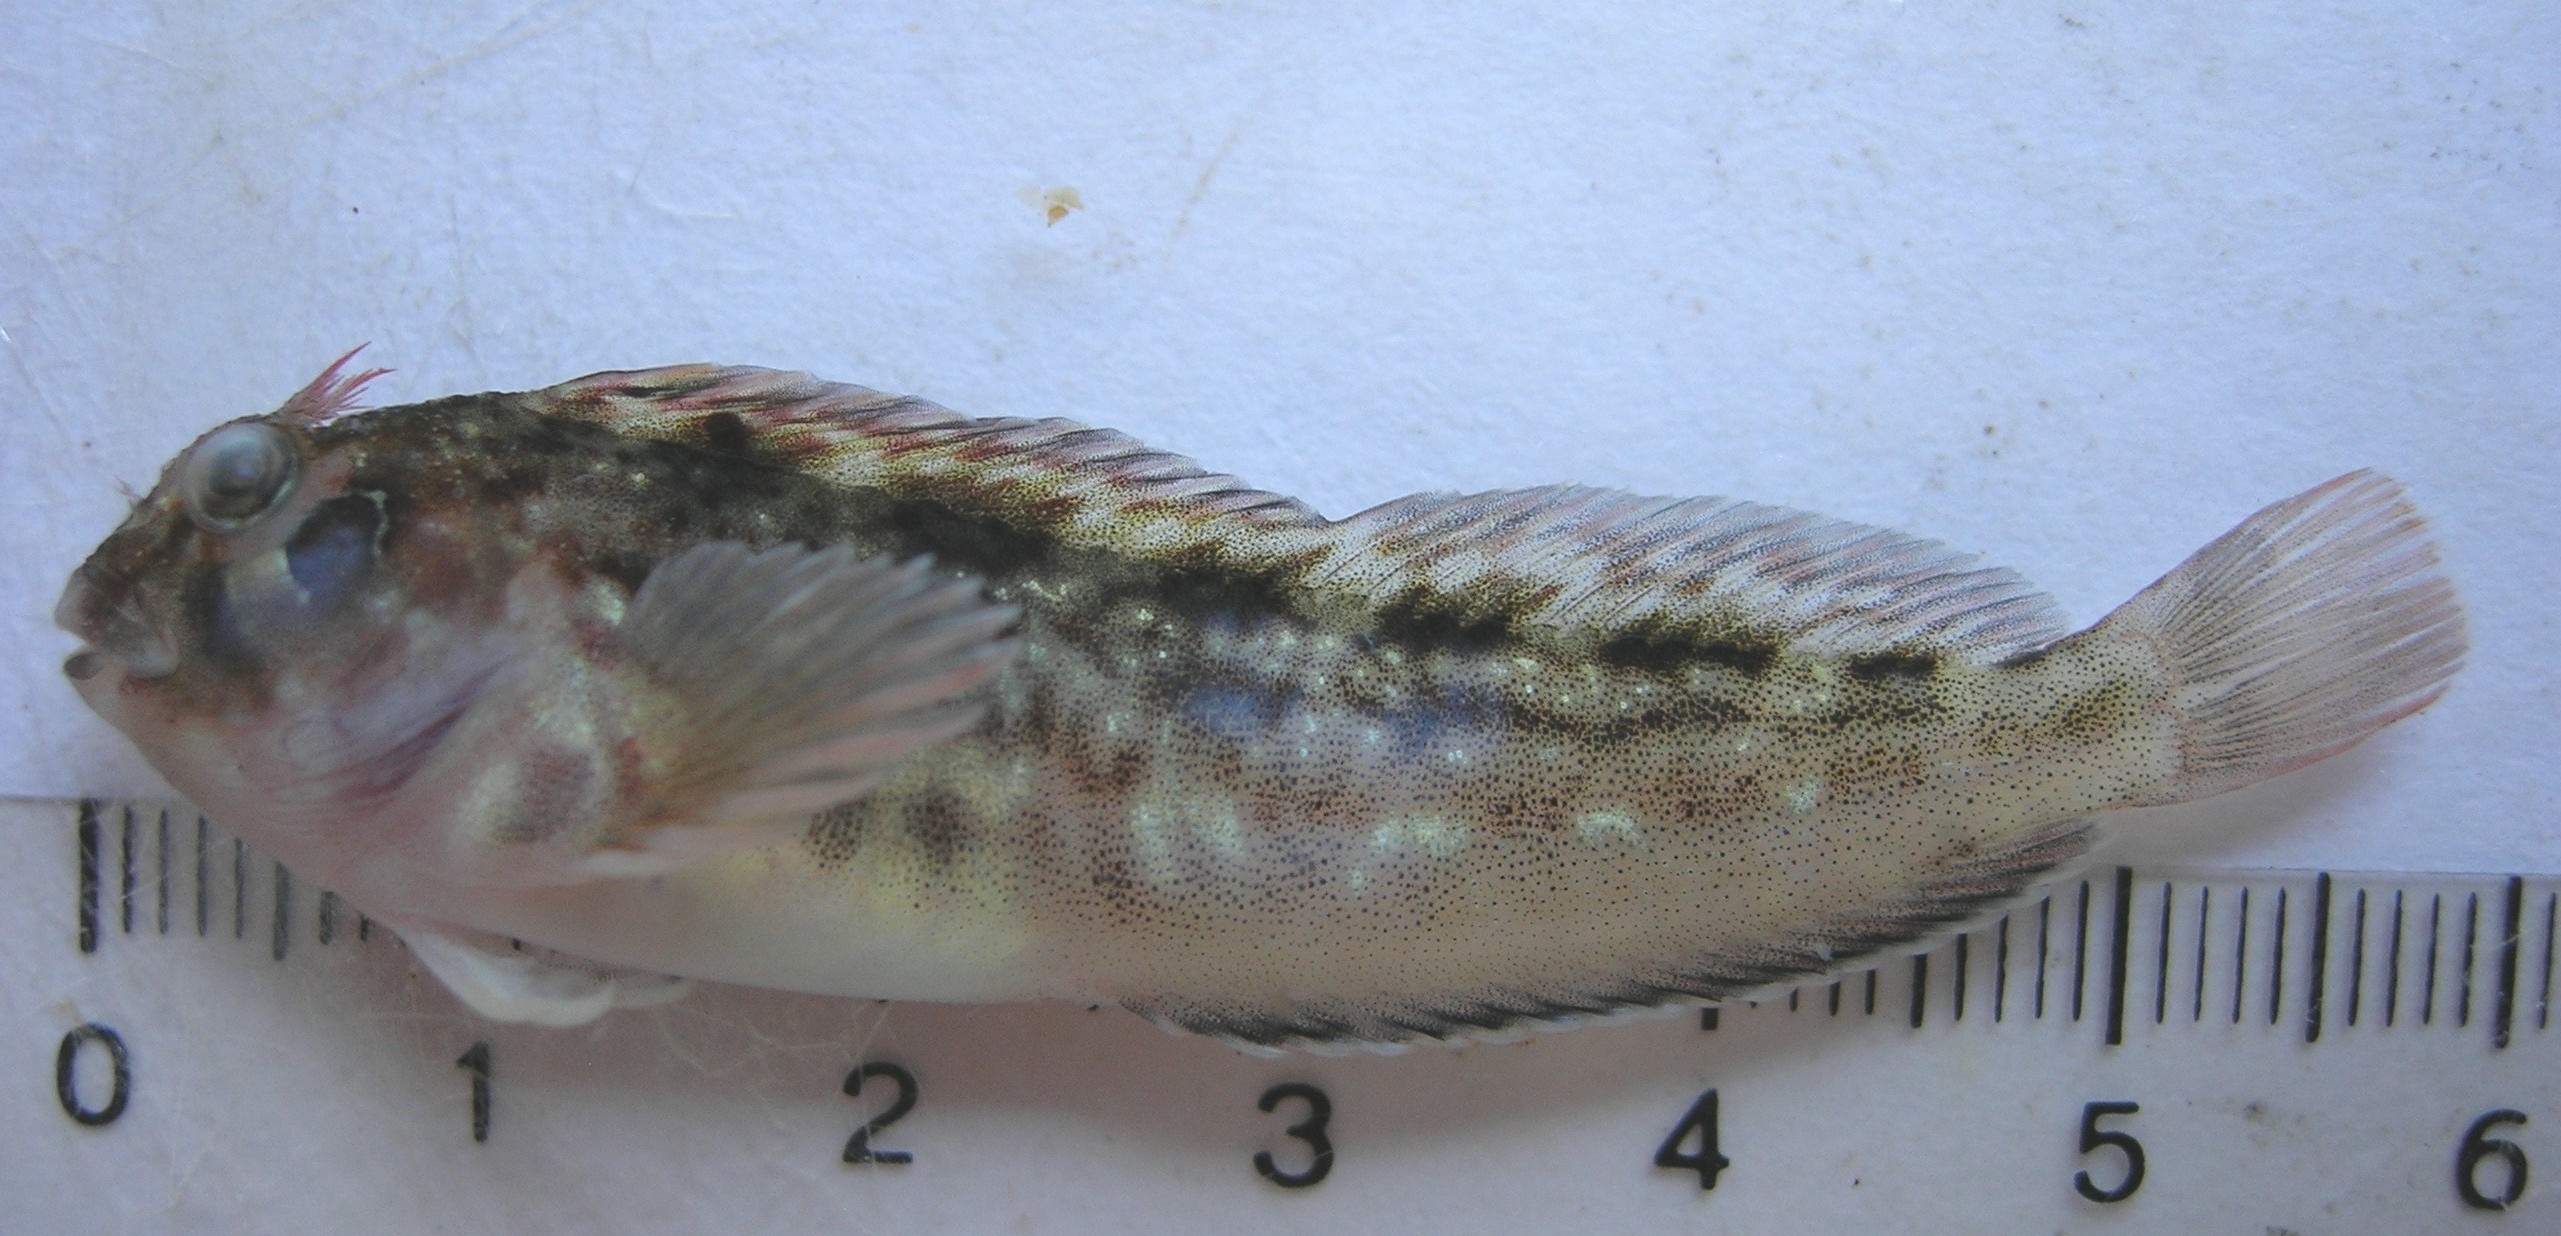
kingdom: Animalia
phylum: Chordata
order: Perciformes
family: Blenniidae
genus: Parablennius
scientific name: Parablennius cornutus
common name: Horned blenny
